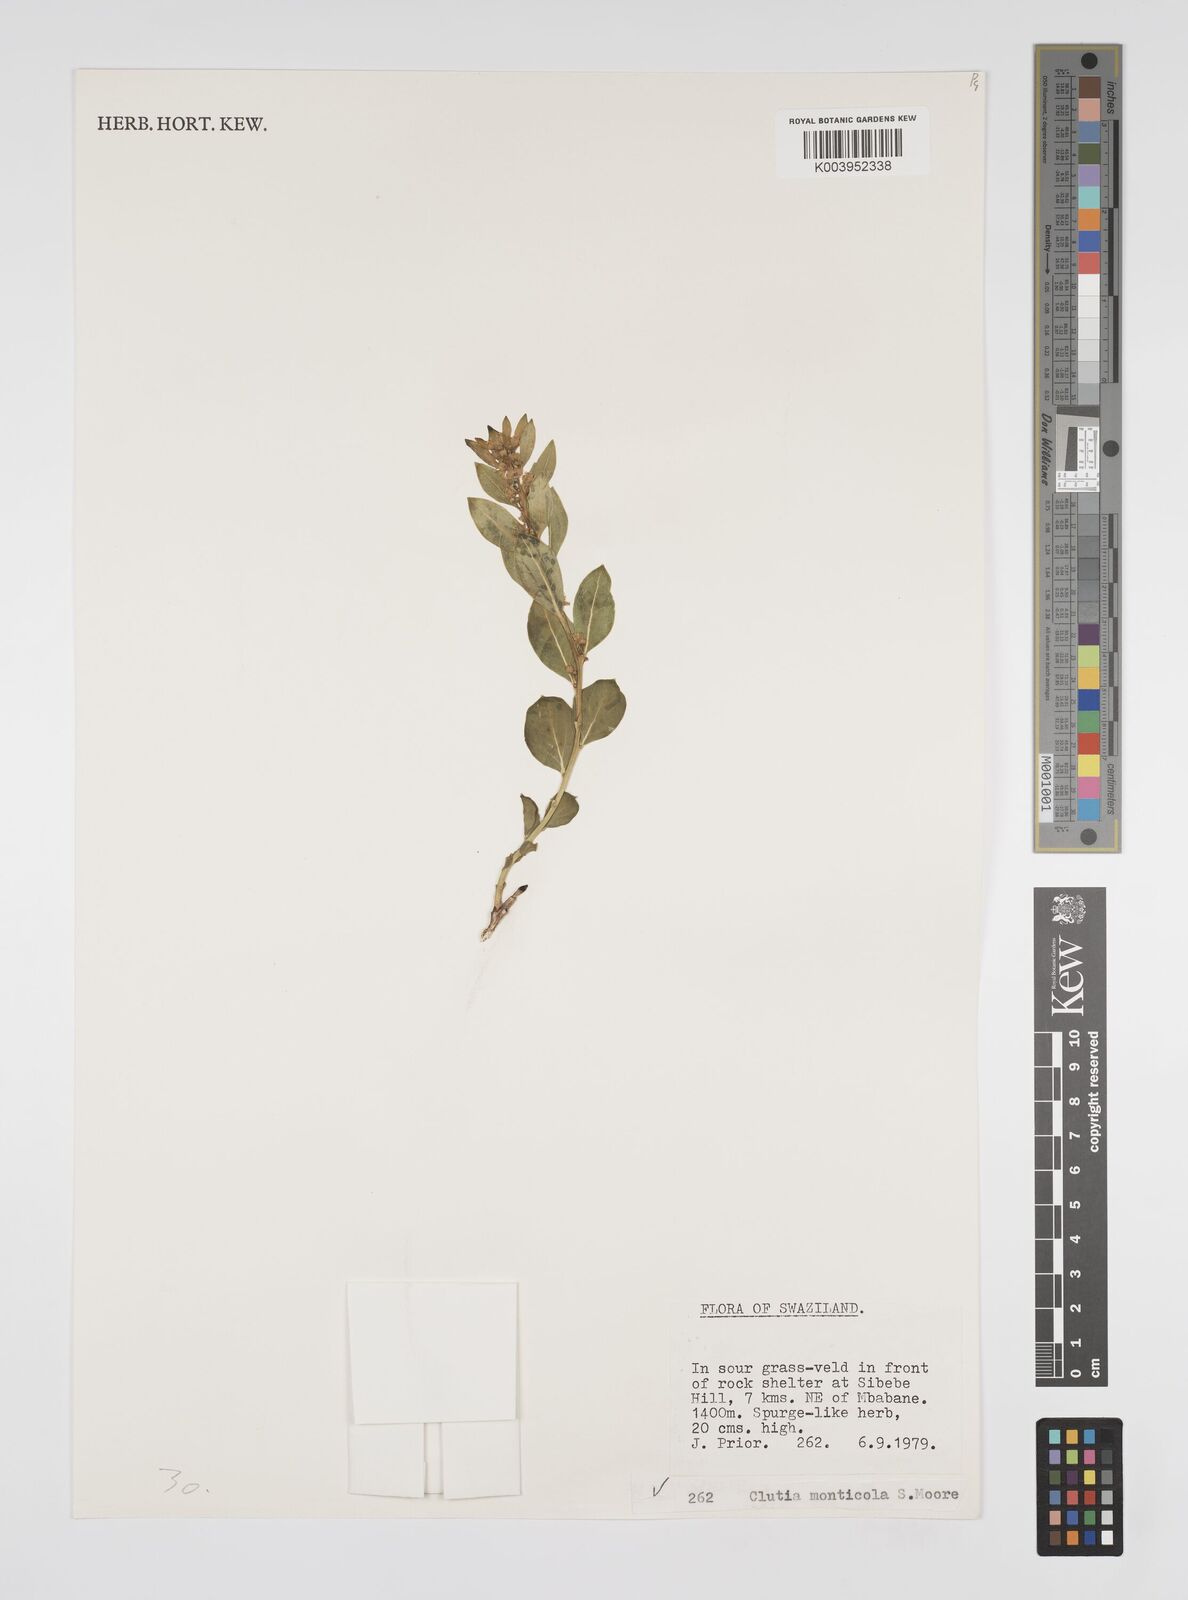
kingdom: Plantae
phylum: Tracheophyta
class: Magnoliopsida
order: Malpighiales
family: Peraceae
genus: Clutia
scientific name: Clutia monticola
